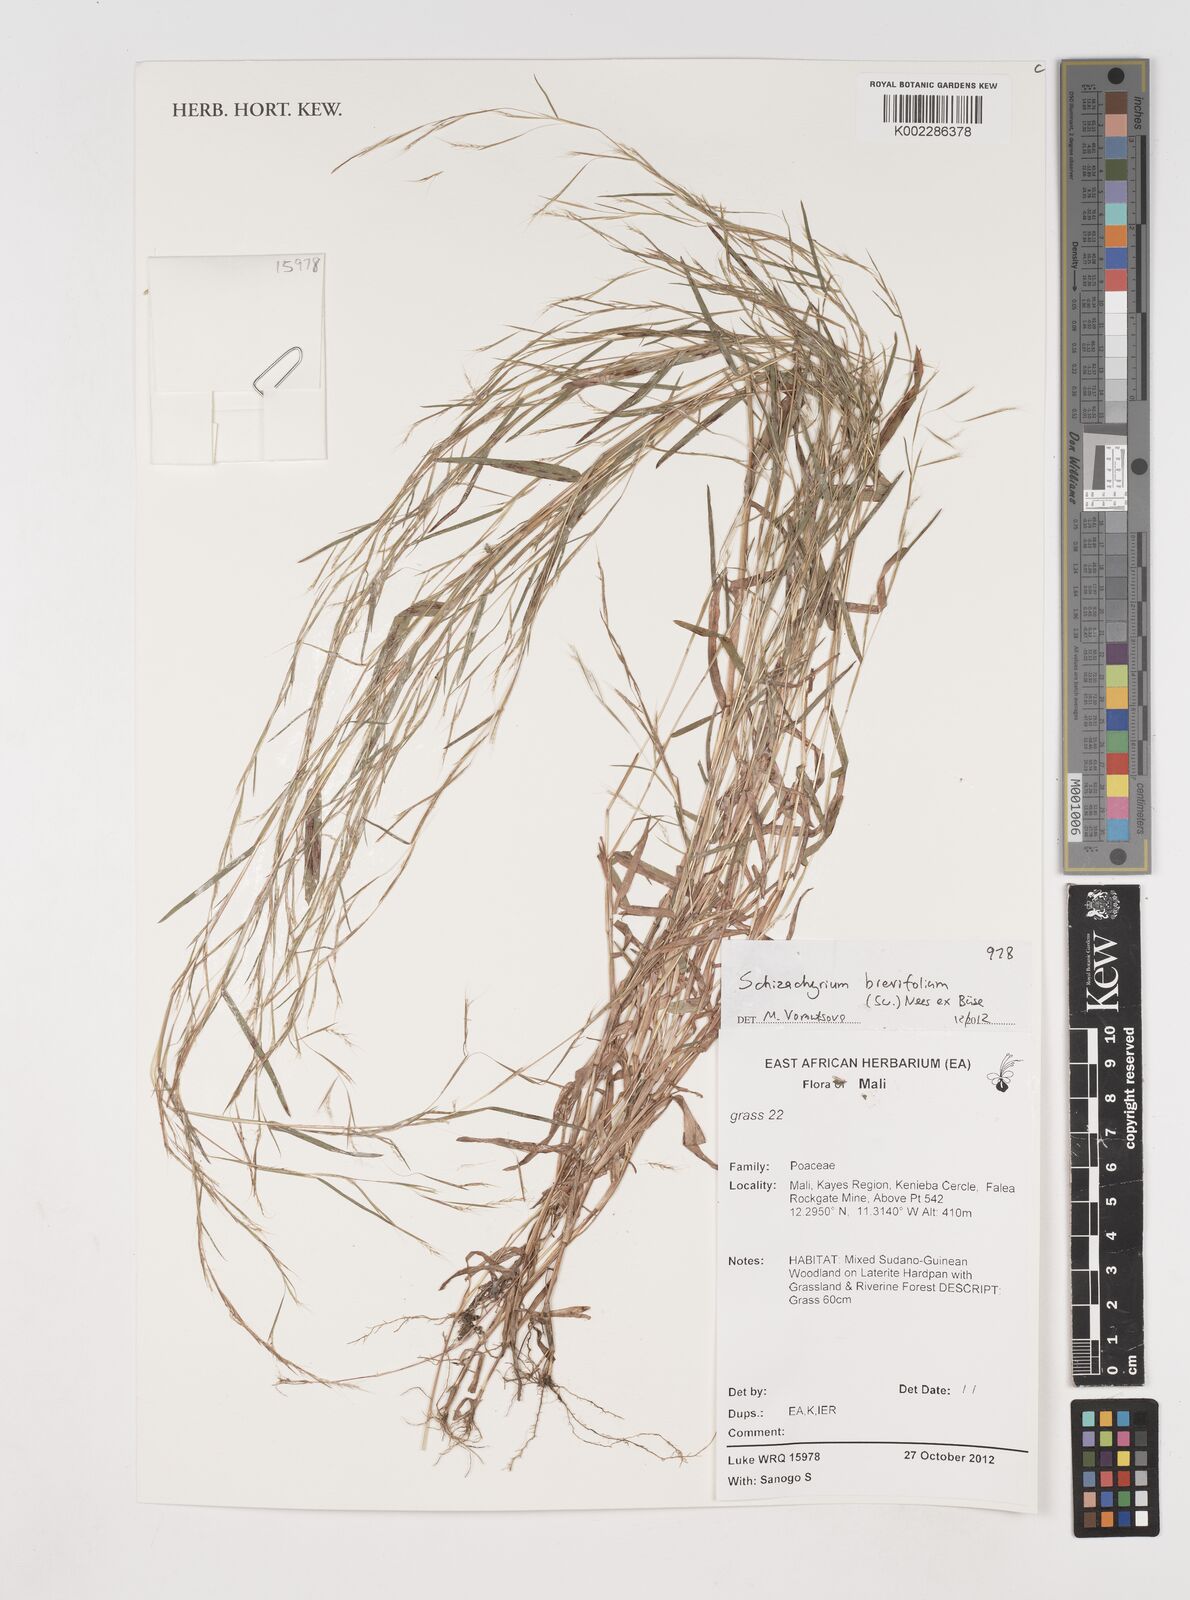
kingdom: Plantae
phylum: Tracheophyta
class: Liliopsida
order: Poales
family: Poaceae
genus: Schizachyrium
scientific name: Schizachyrium brevifolium
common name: Serillo dulce
